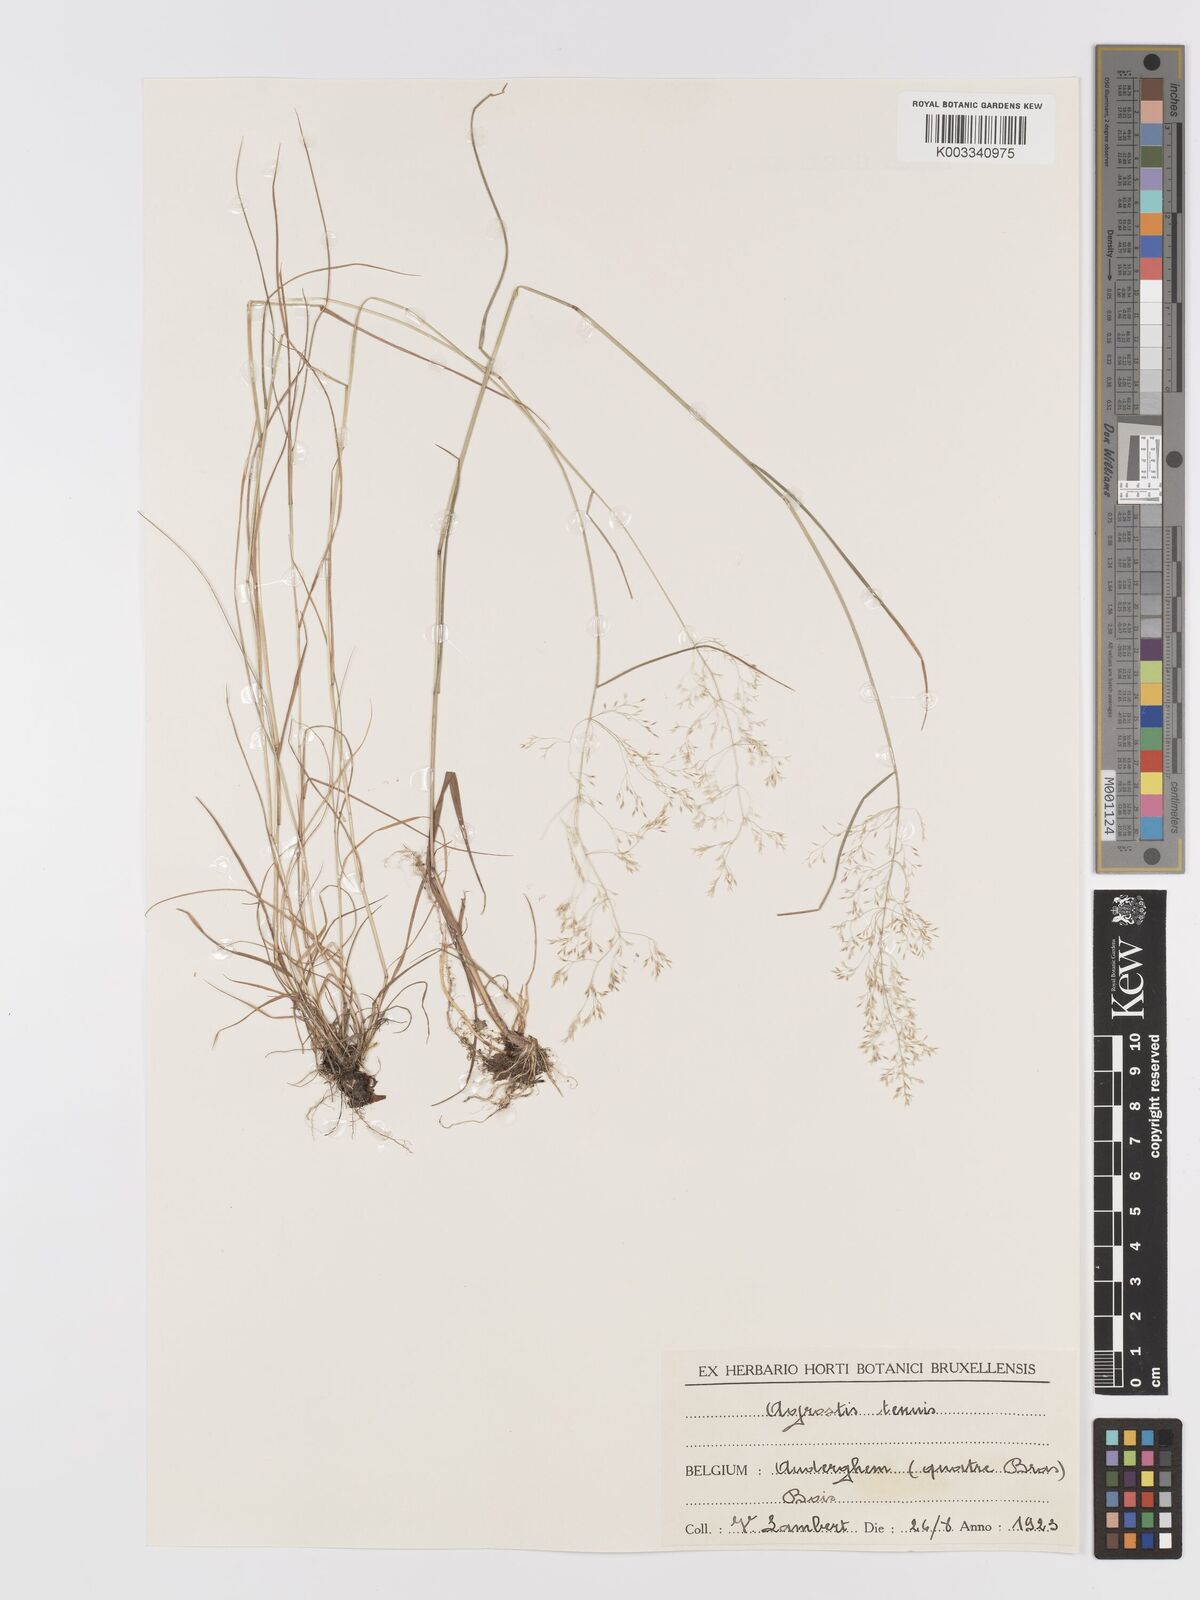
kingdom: Plantae
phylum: Tracheophyta
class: Liliopsida
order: Poales
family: Poaceae
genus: Agrostis
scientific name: Agrostis capillaris
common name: Colonial bentgrass
